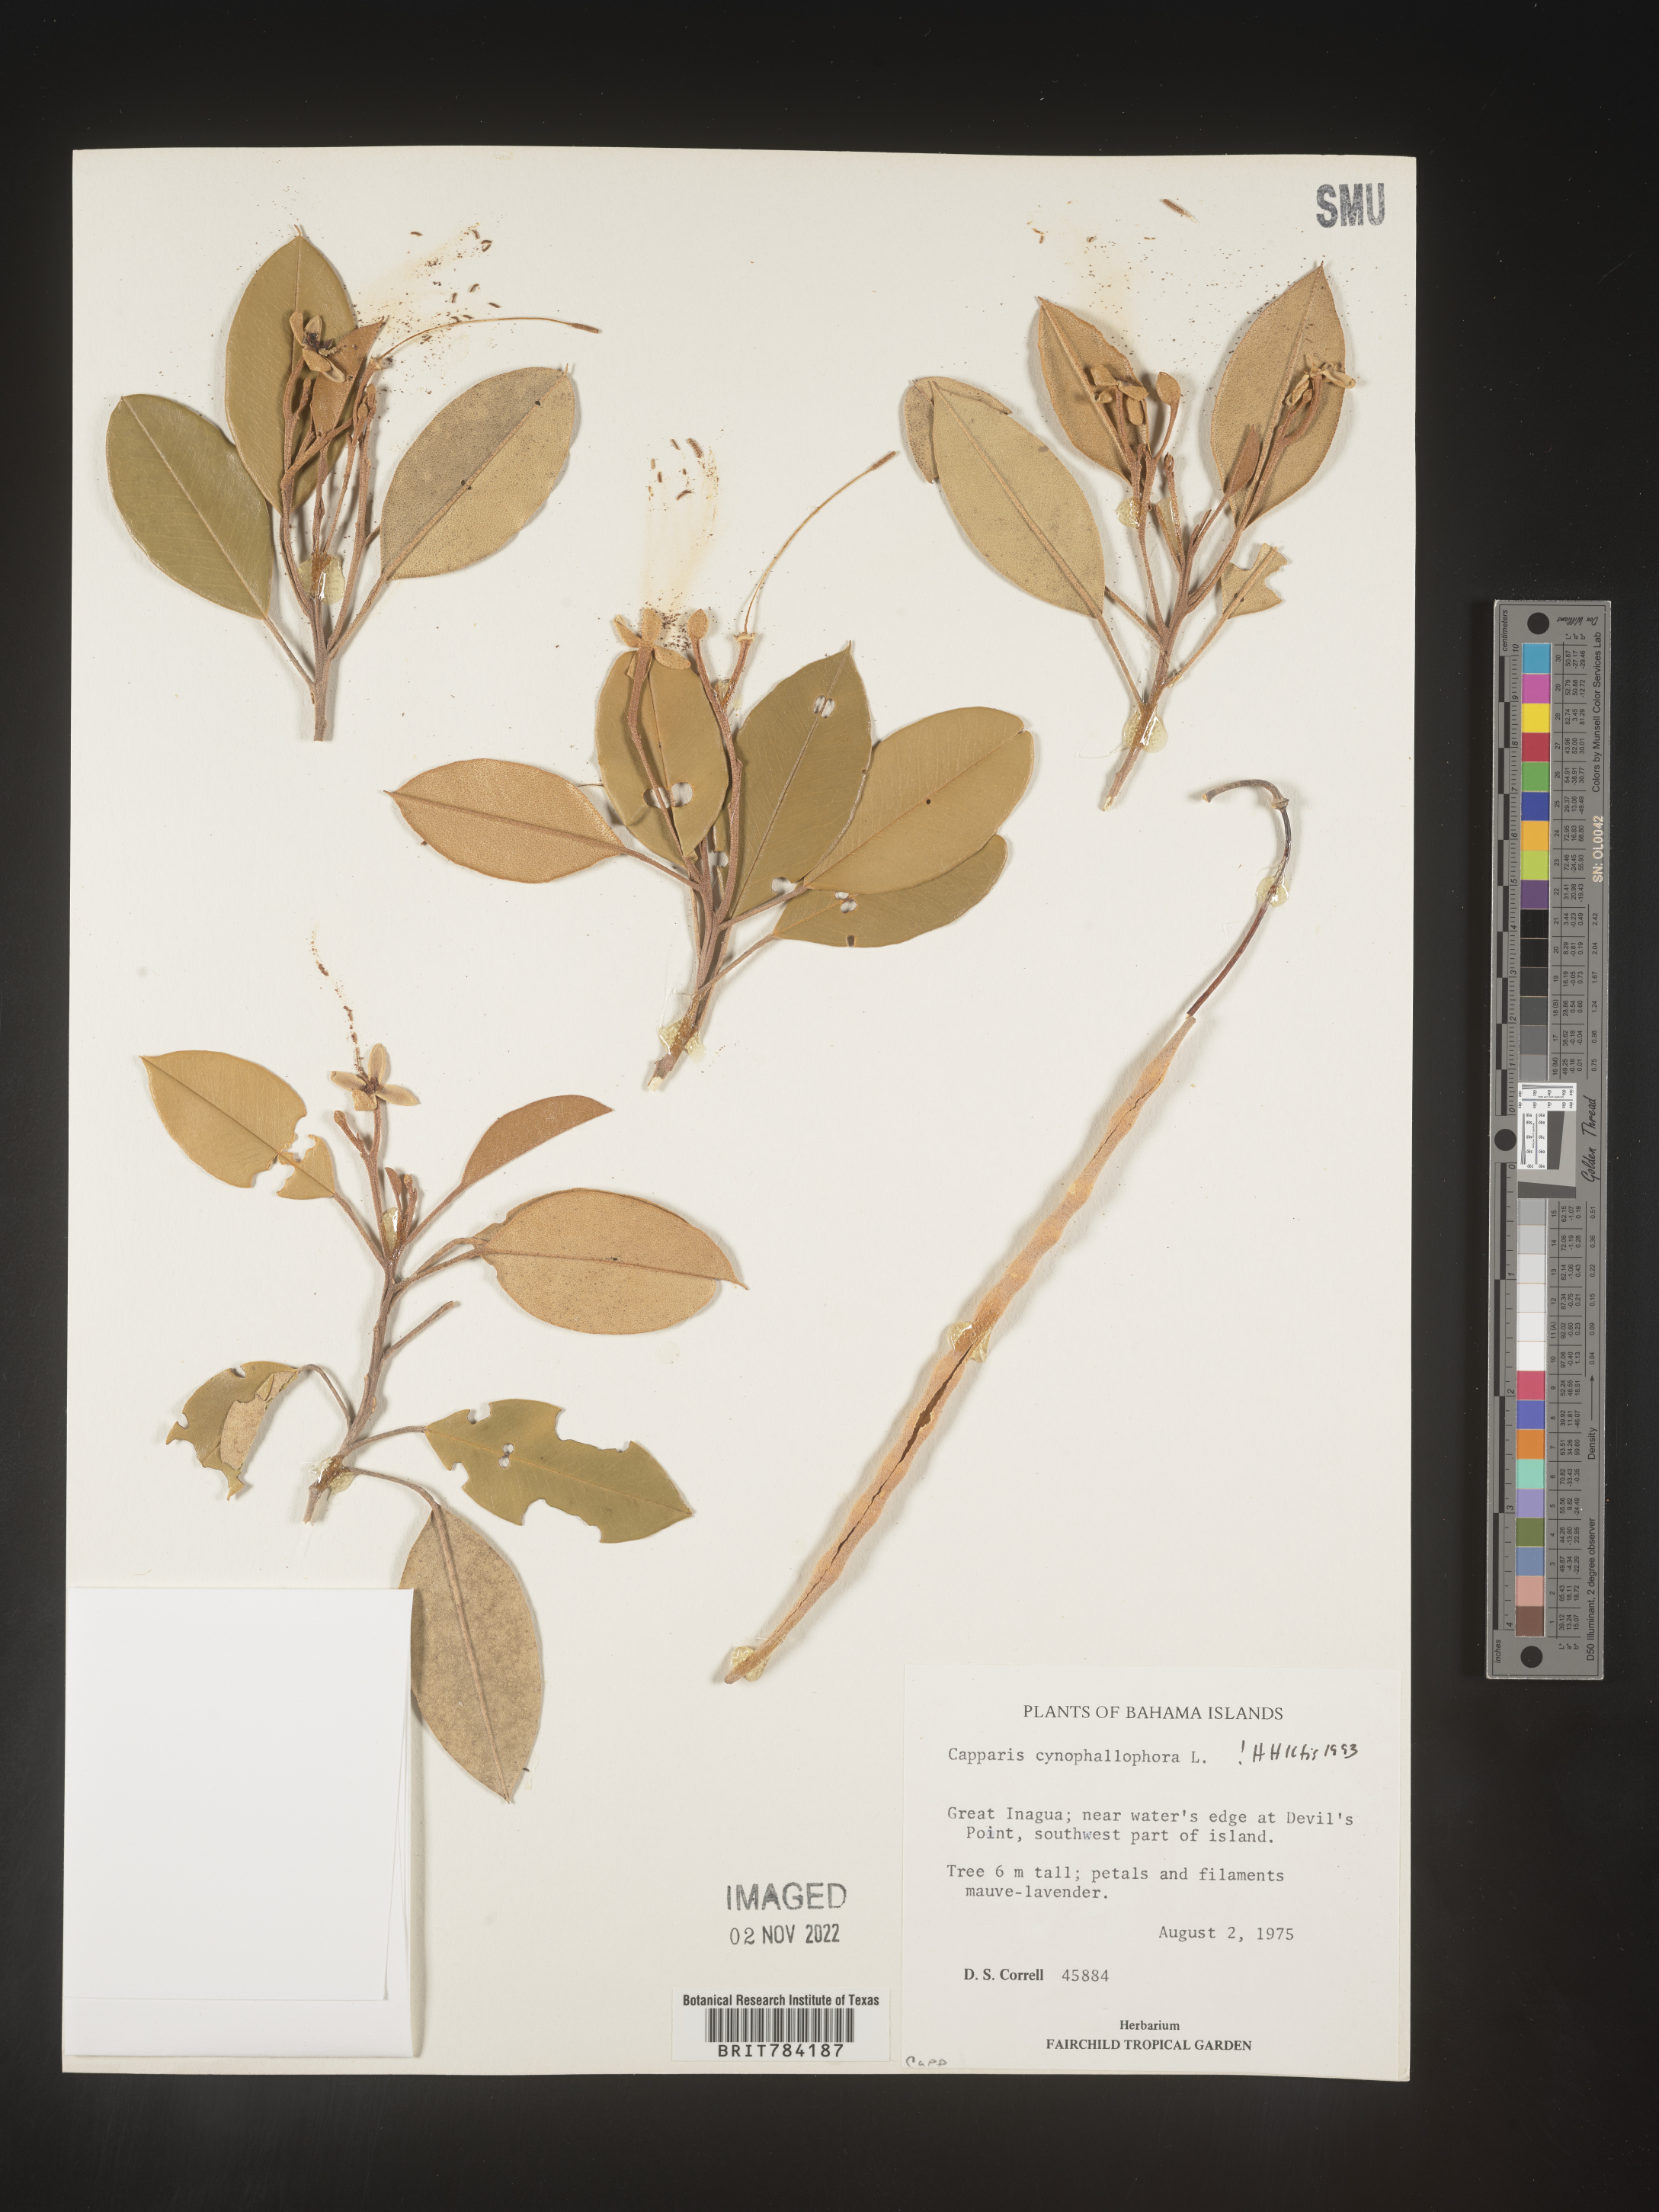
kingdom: Plantae
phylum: Tracheophyta
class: Magnoliopsida
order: Brassicales
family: Capparaceae
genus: Capparis
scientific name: Capparis
